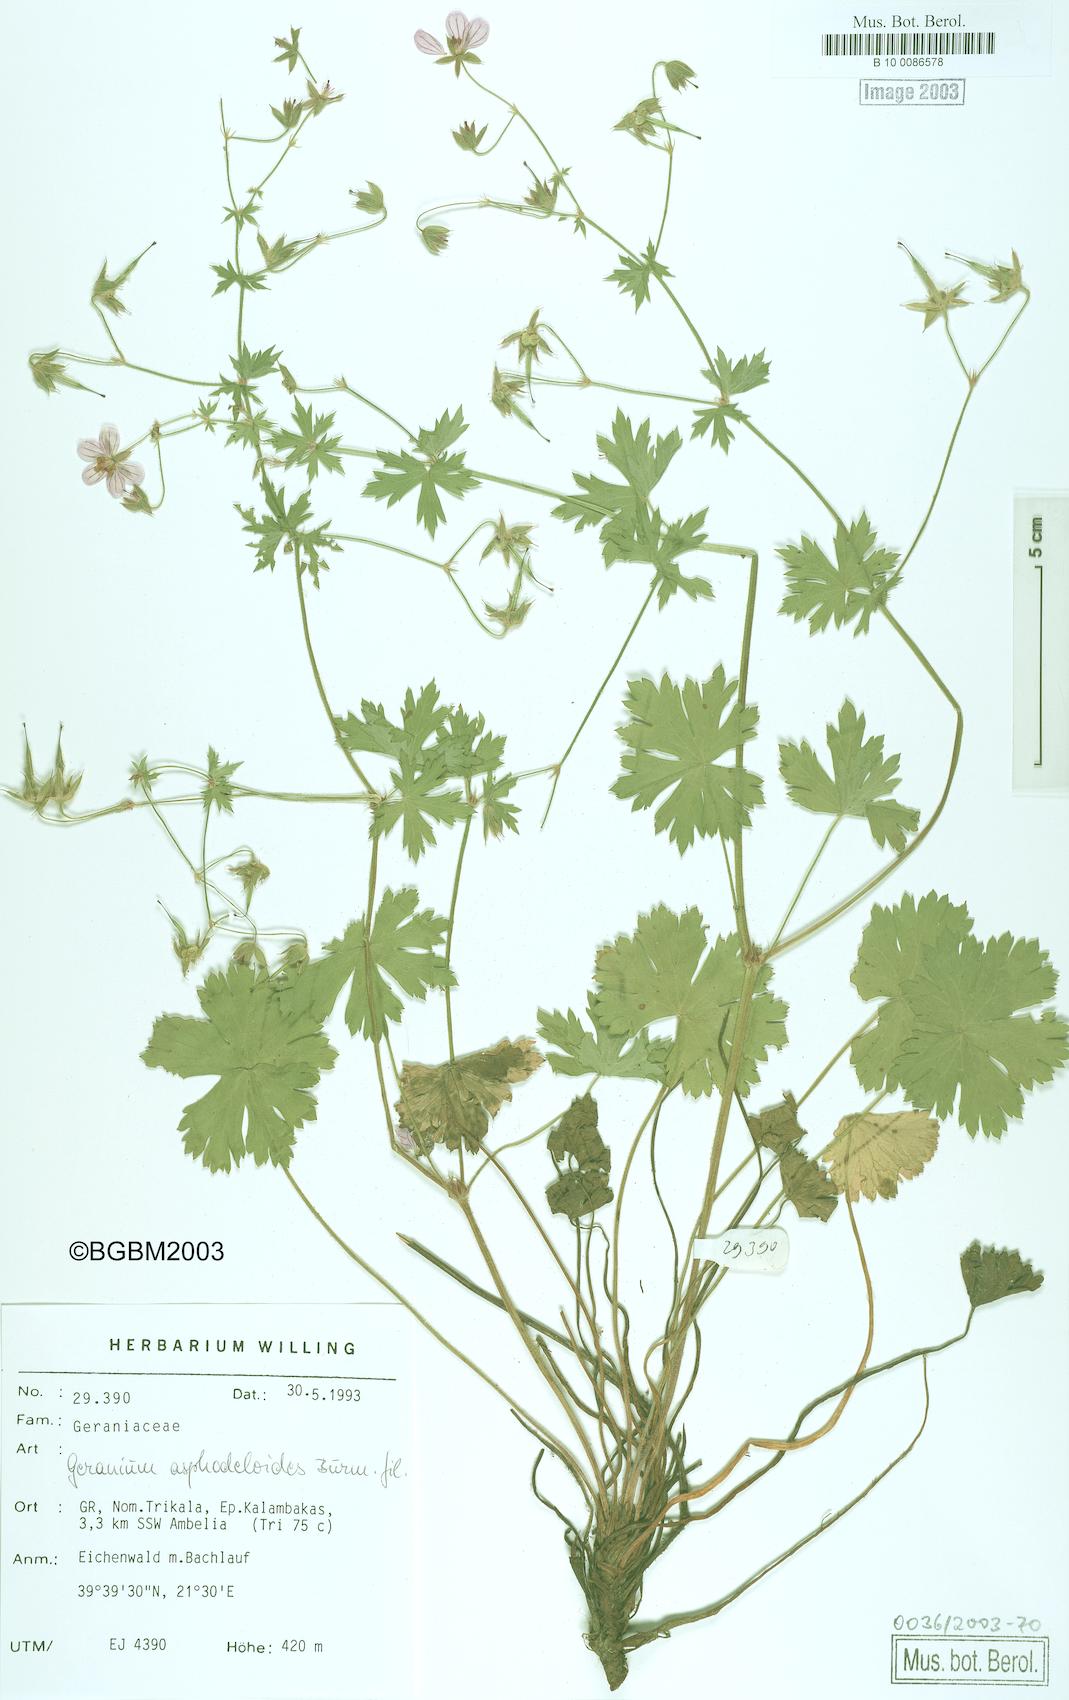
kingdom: Plantae
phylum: Tracheophyta
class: Magnoliopsida
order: Geraniales
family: Geraniaceae
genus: Geranium
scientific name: Geranium asphodeloides
